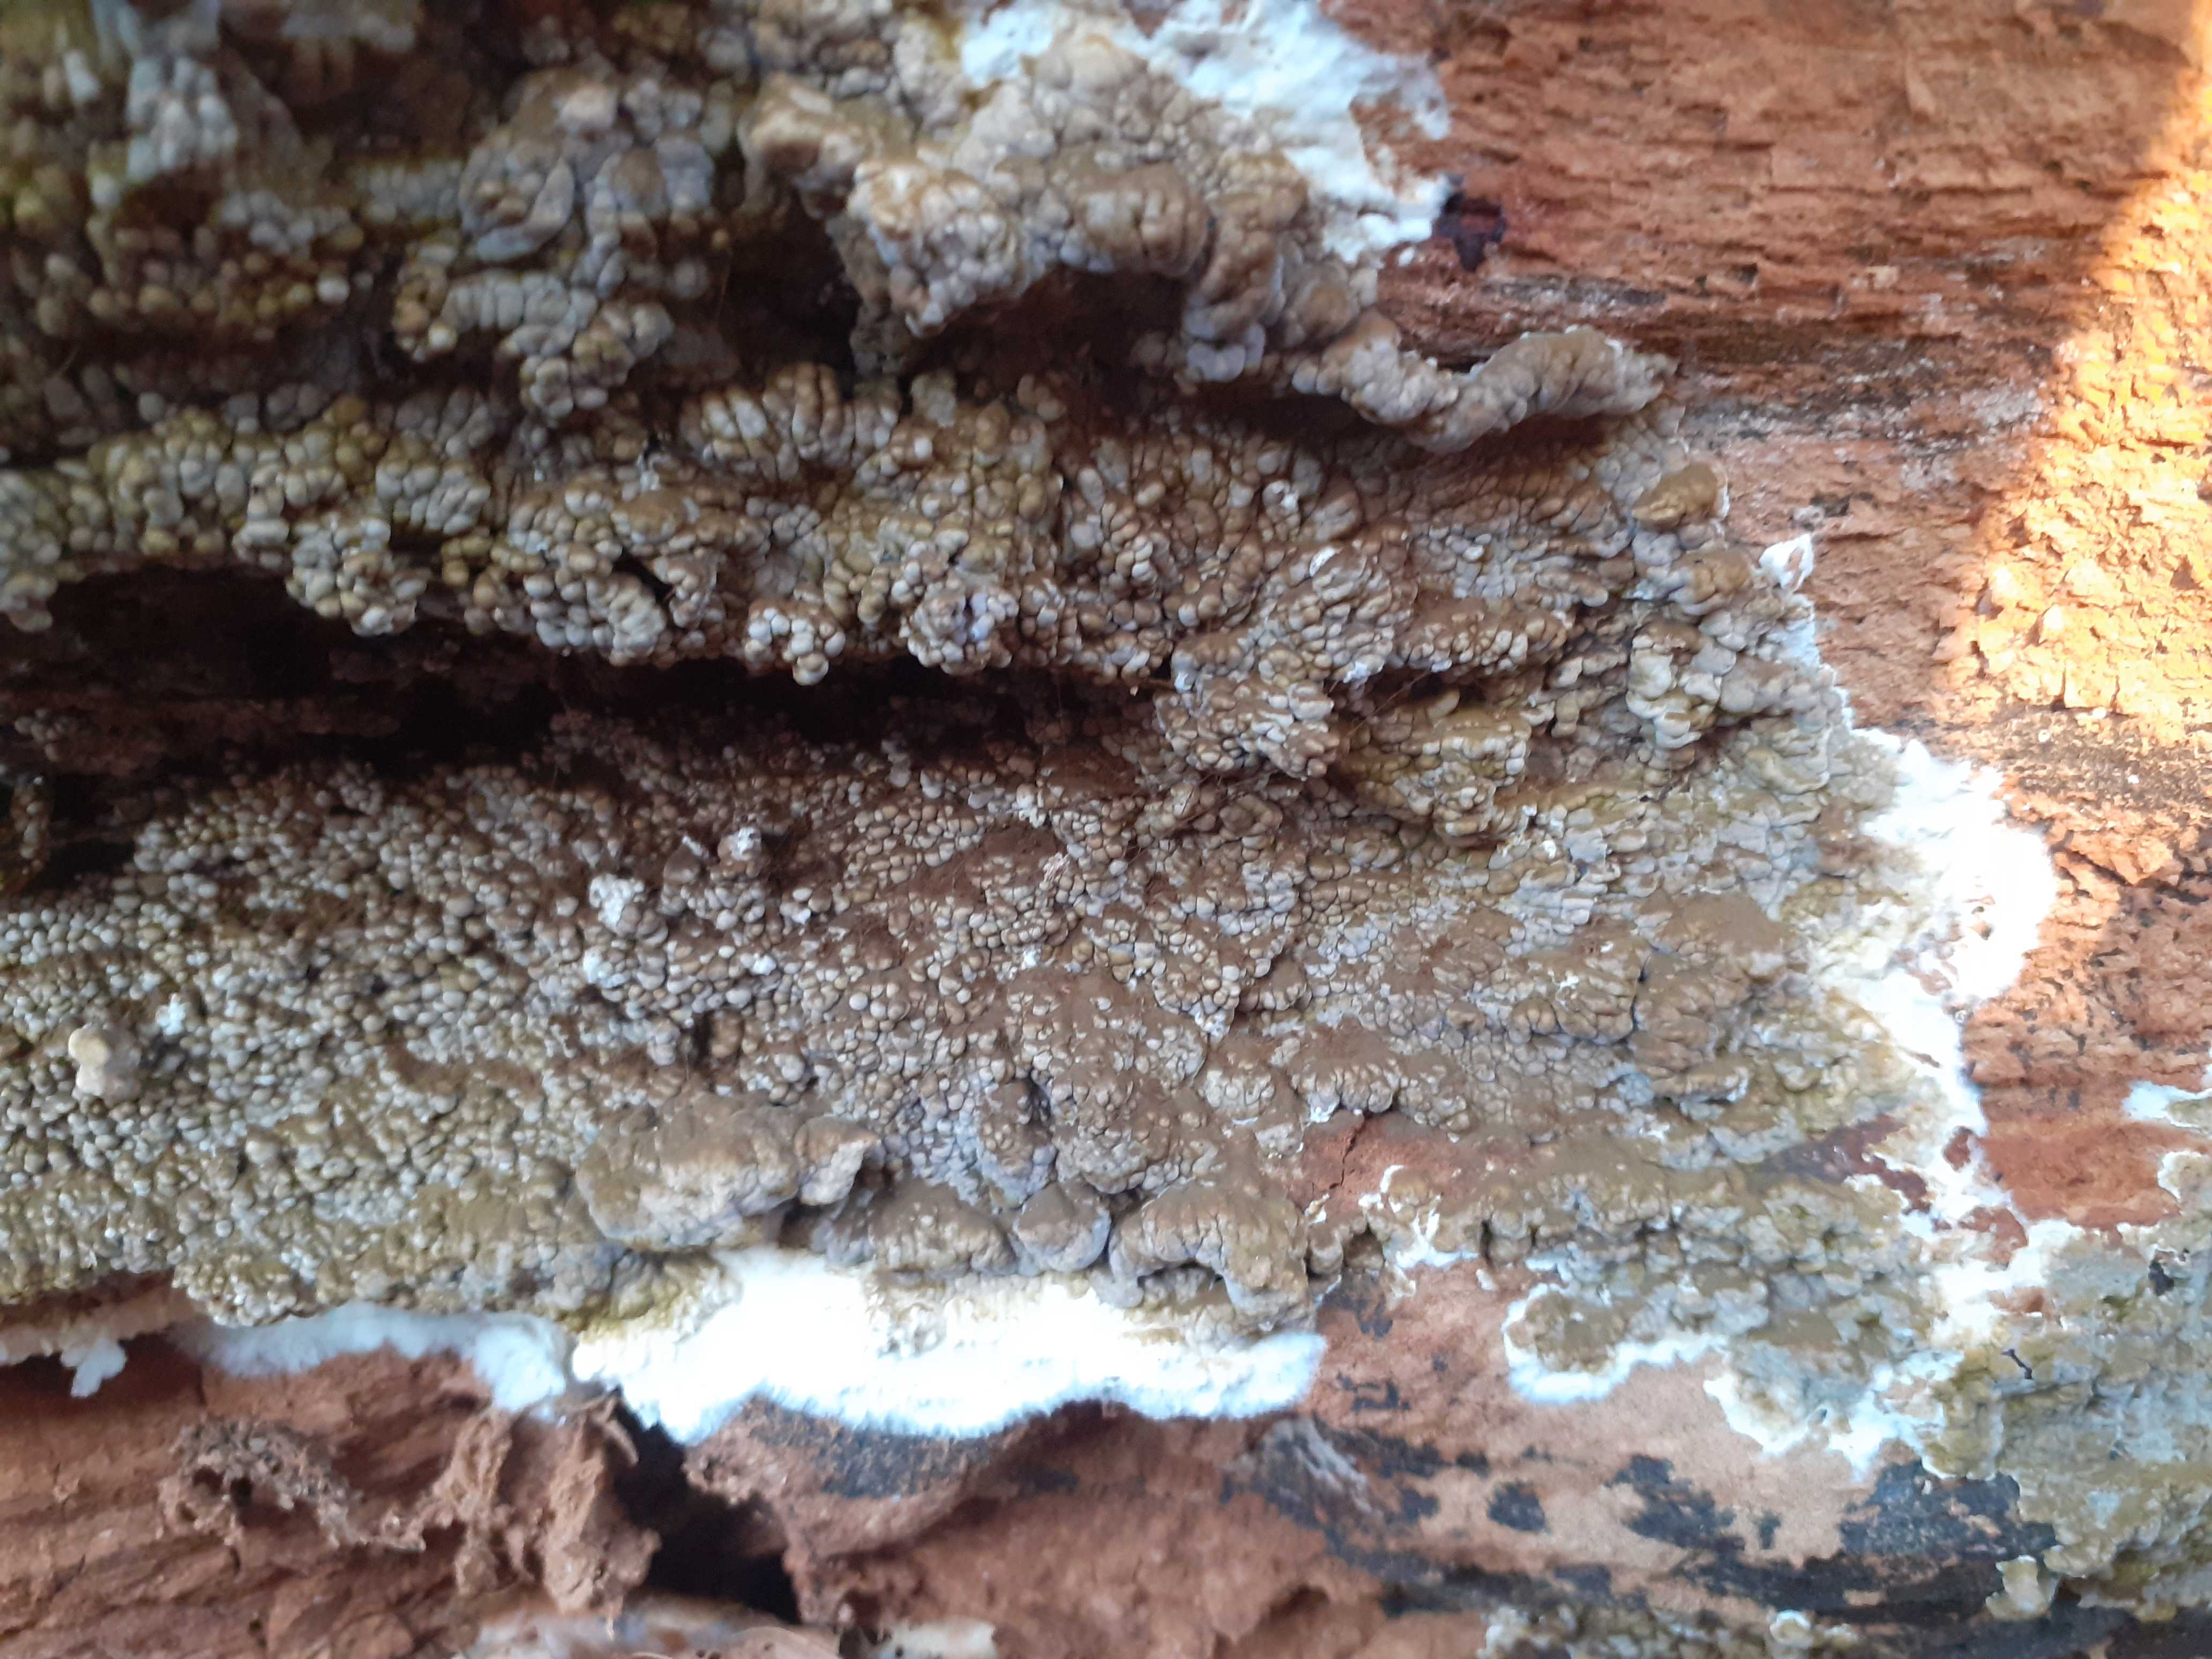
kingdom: Fungi
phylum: Basidiomycota
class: Agaricomycetes
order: Boletales
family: Coniophoraceae
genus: Coniophora
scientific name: Coniophora puteana
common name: gul tømmersvamp
